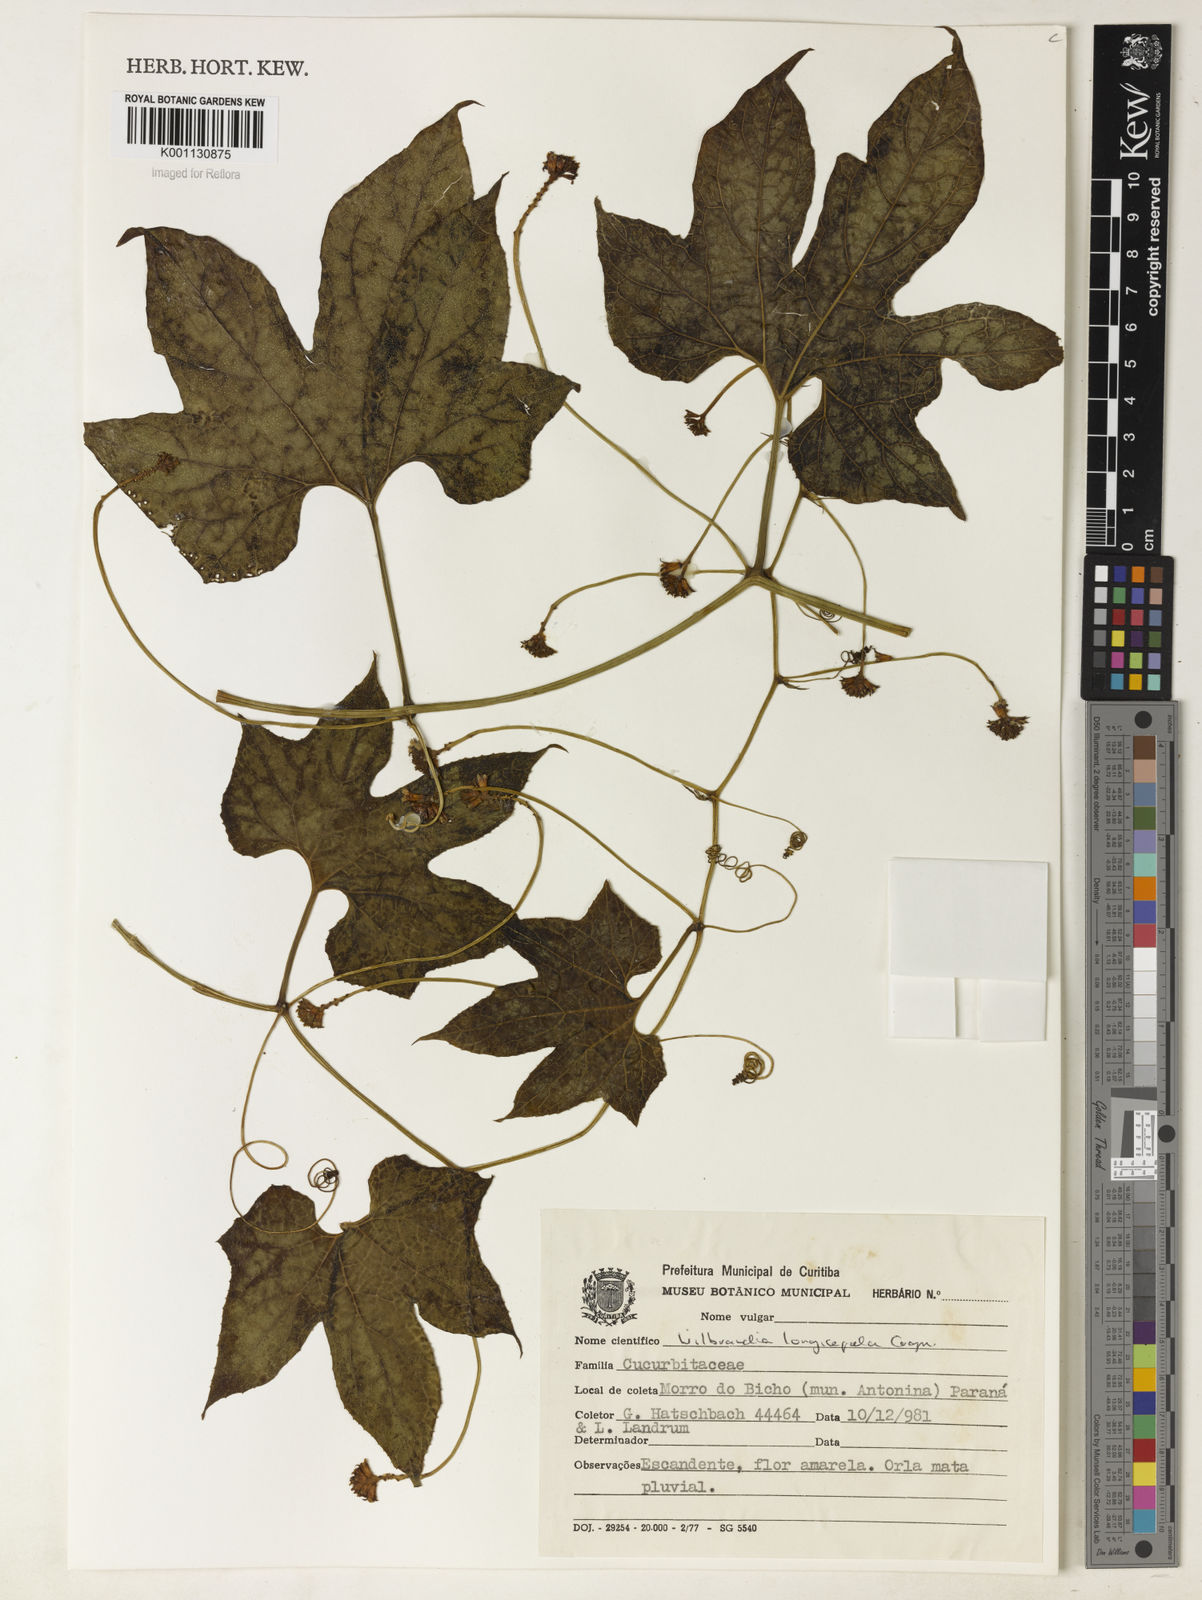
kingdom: Plantae
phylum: Tracheophyta
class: Magnoliopsida
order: Cucurbitales
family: Cucurbitaceae
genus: Wilbrandia
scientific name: Wilbrandia longisepala
